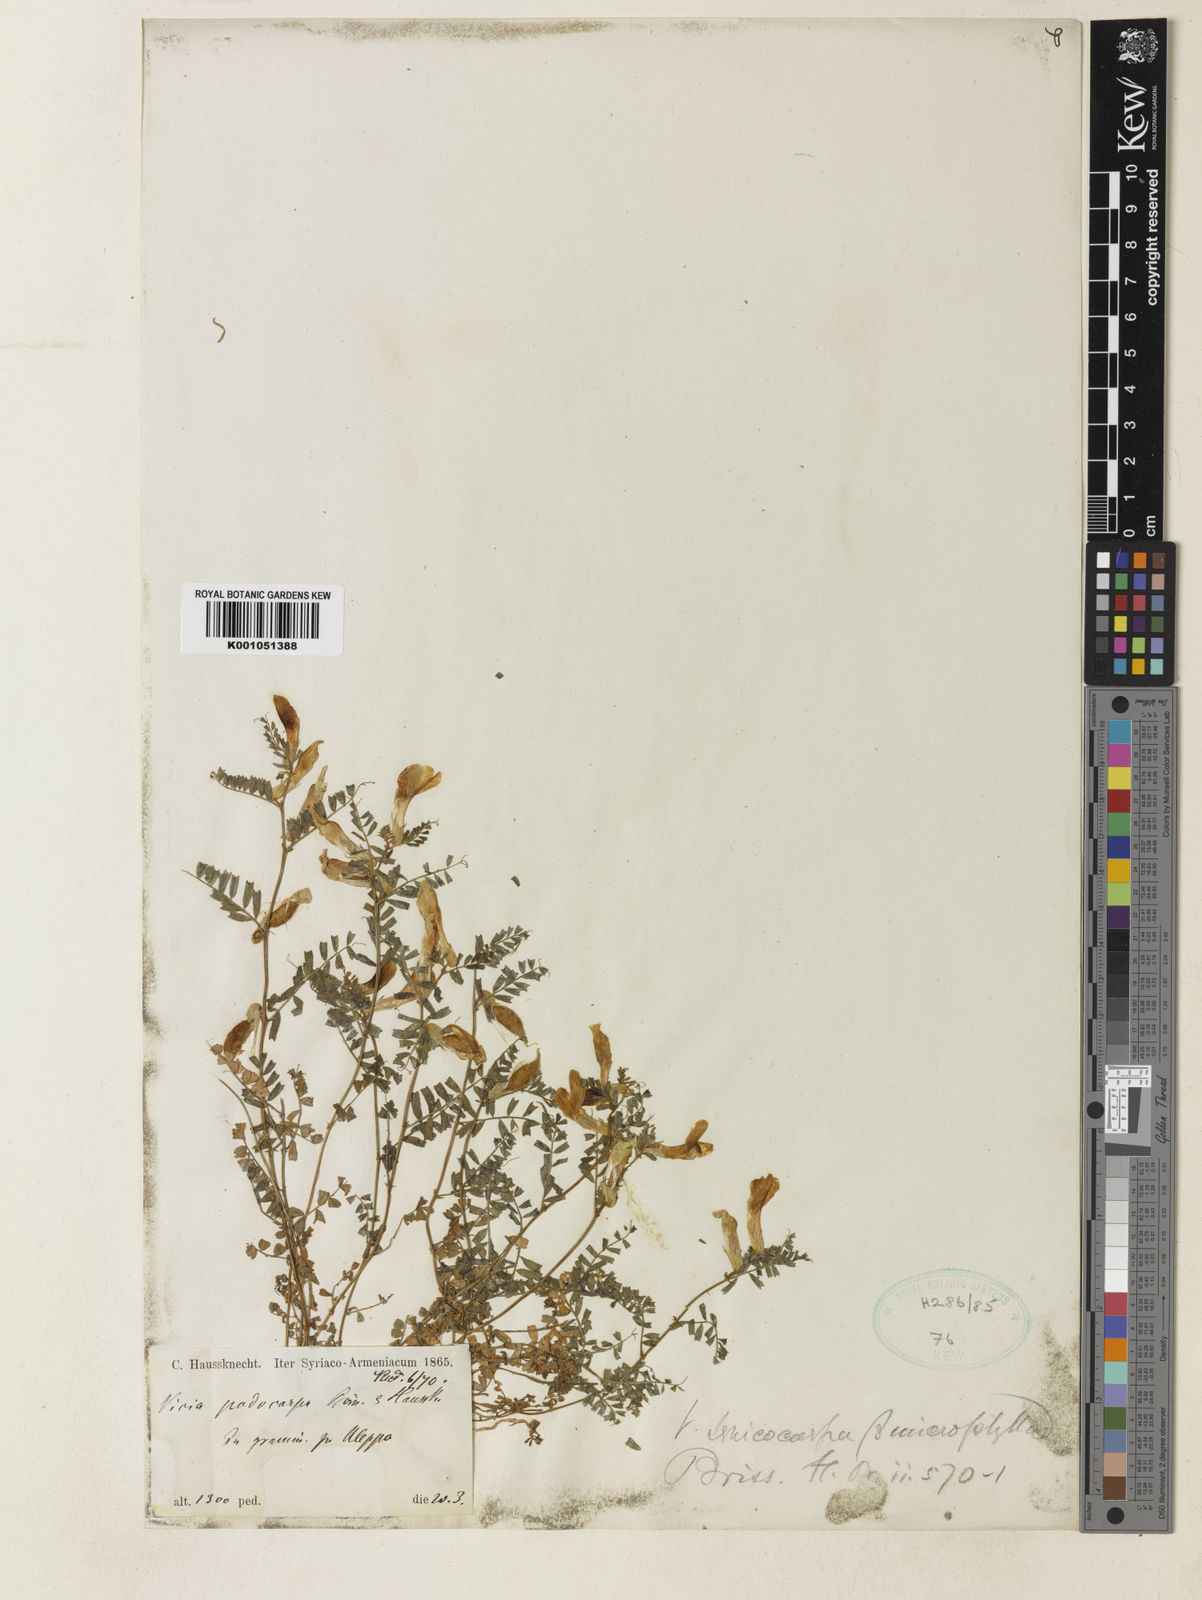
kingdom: Plantae
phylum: Tracheophyta
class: Magnoliopsida
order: Fabales
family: Fabaceae
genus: Vicia
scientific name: Vicia sericocarpa
